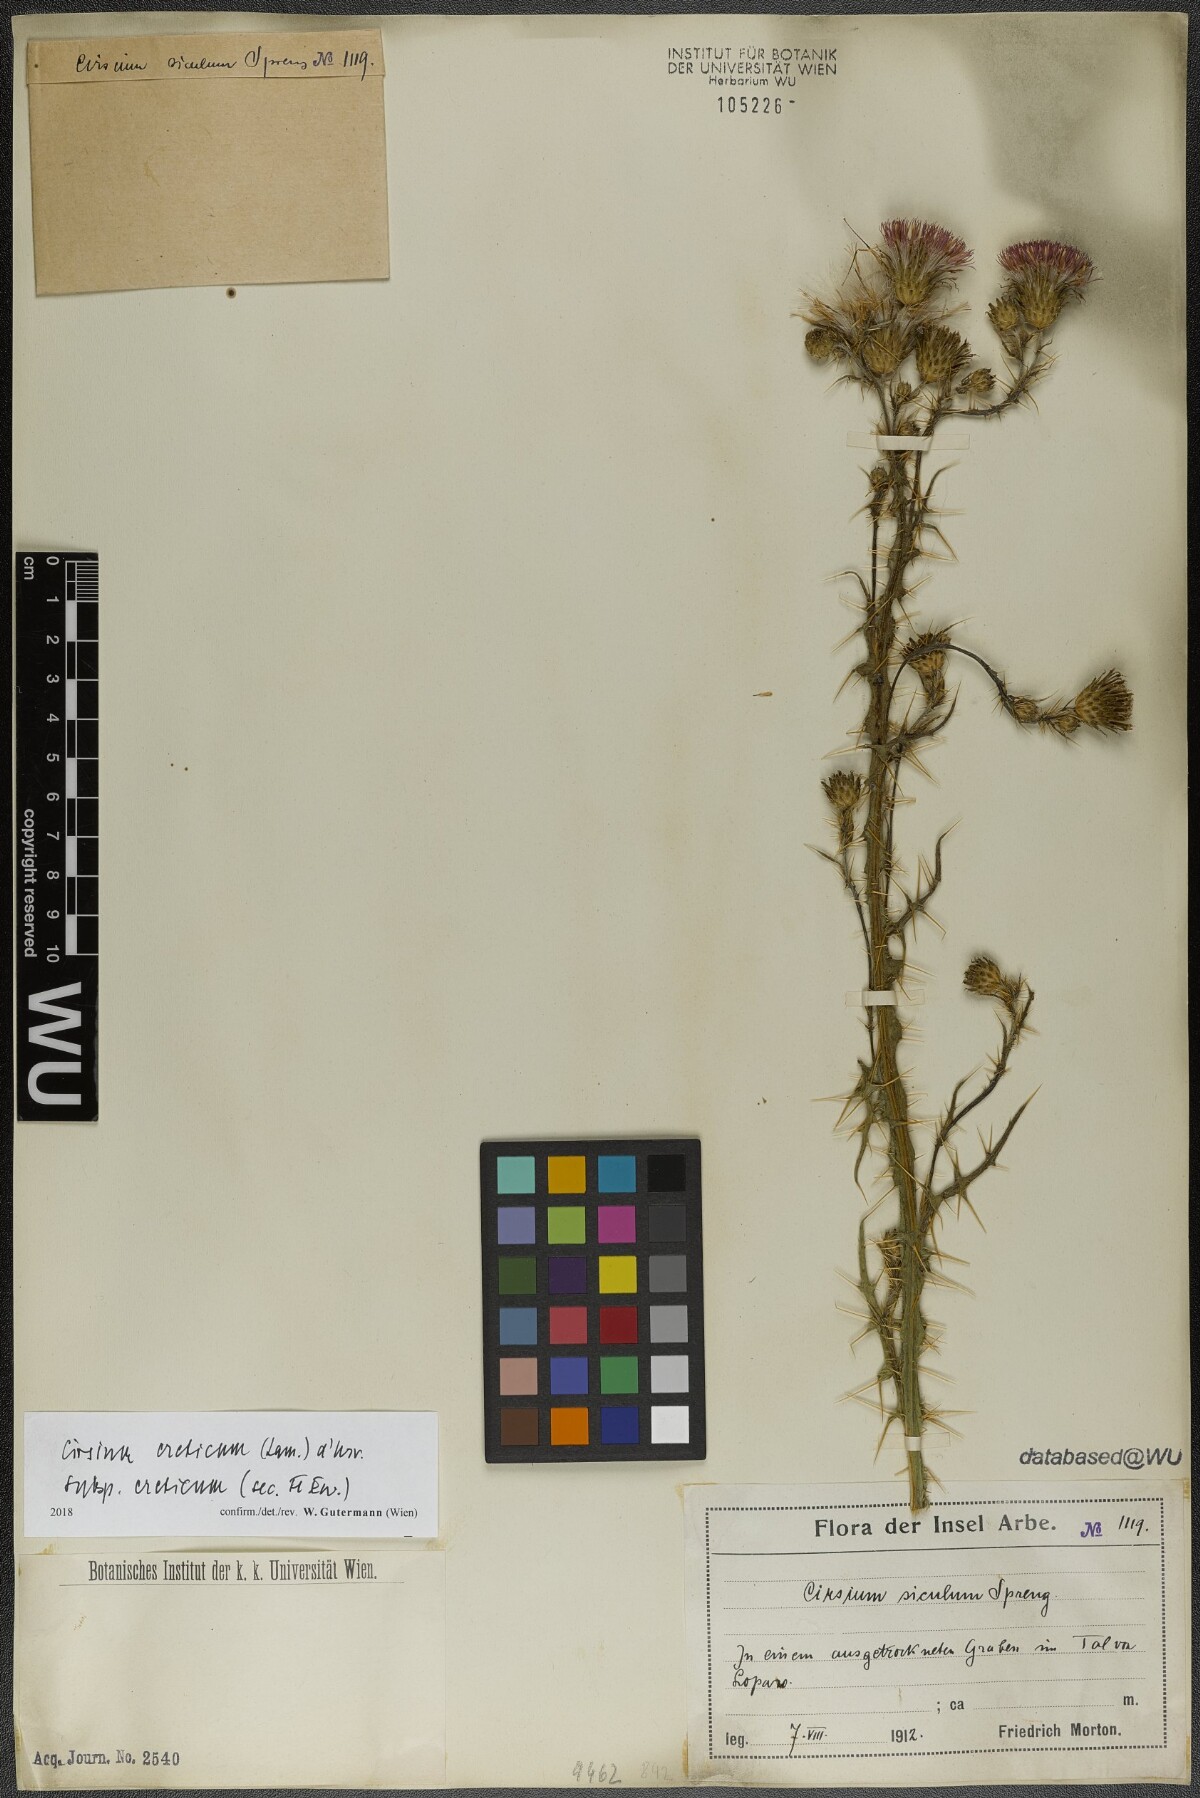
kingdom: Plantae
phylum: Tracheophyta
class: Magnoliopsida
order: Asterales
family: Asteraceae
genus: Cirsium
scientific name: Cirsium creticum
